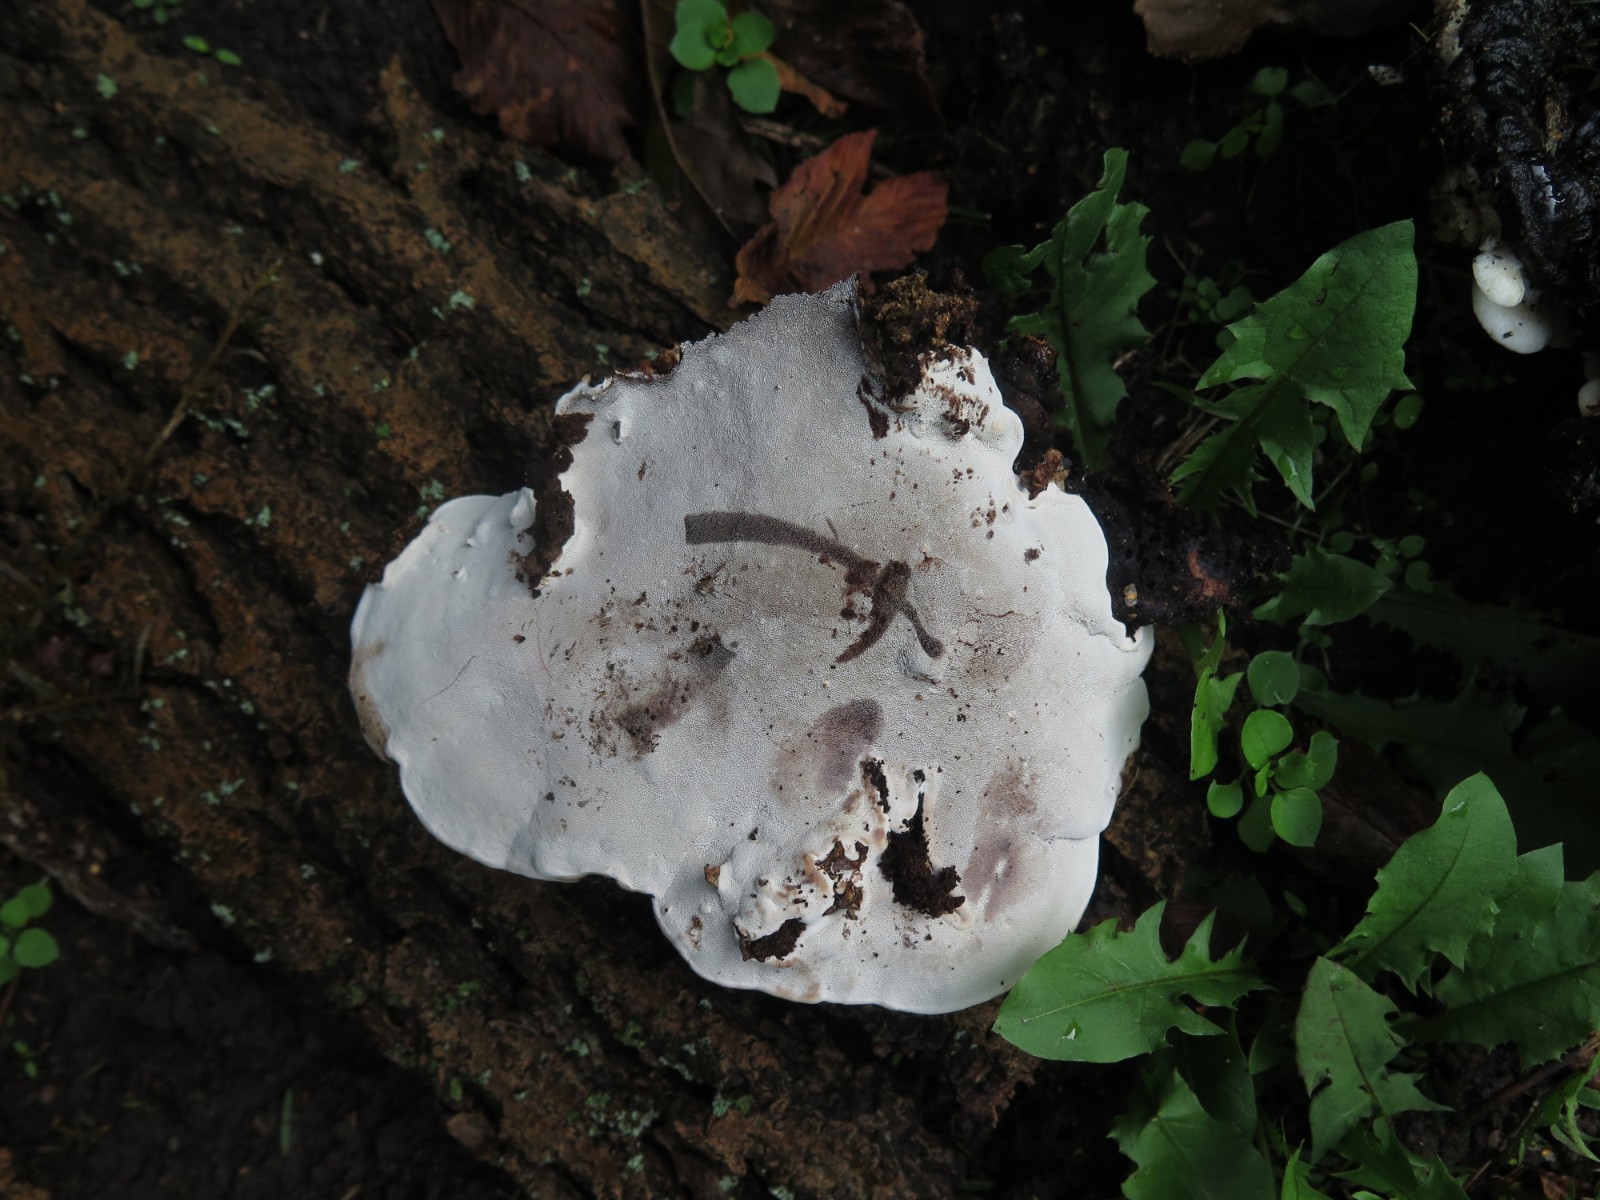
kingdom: Fungi
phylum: Basidiomycota
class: Agaricomycetes
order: Polyporales
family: Polyporaceae
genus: Ganoderma
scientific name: Ganoderma applanatum
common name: flad lakporesvamp
